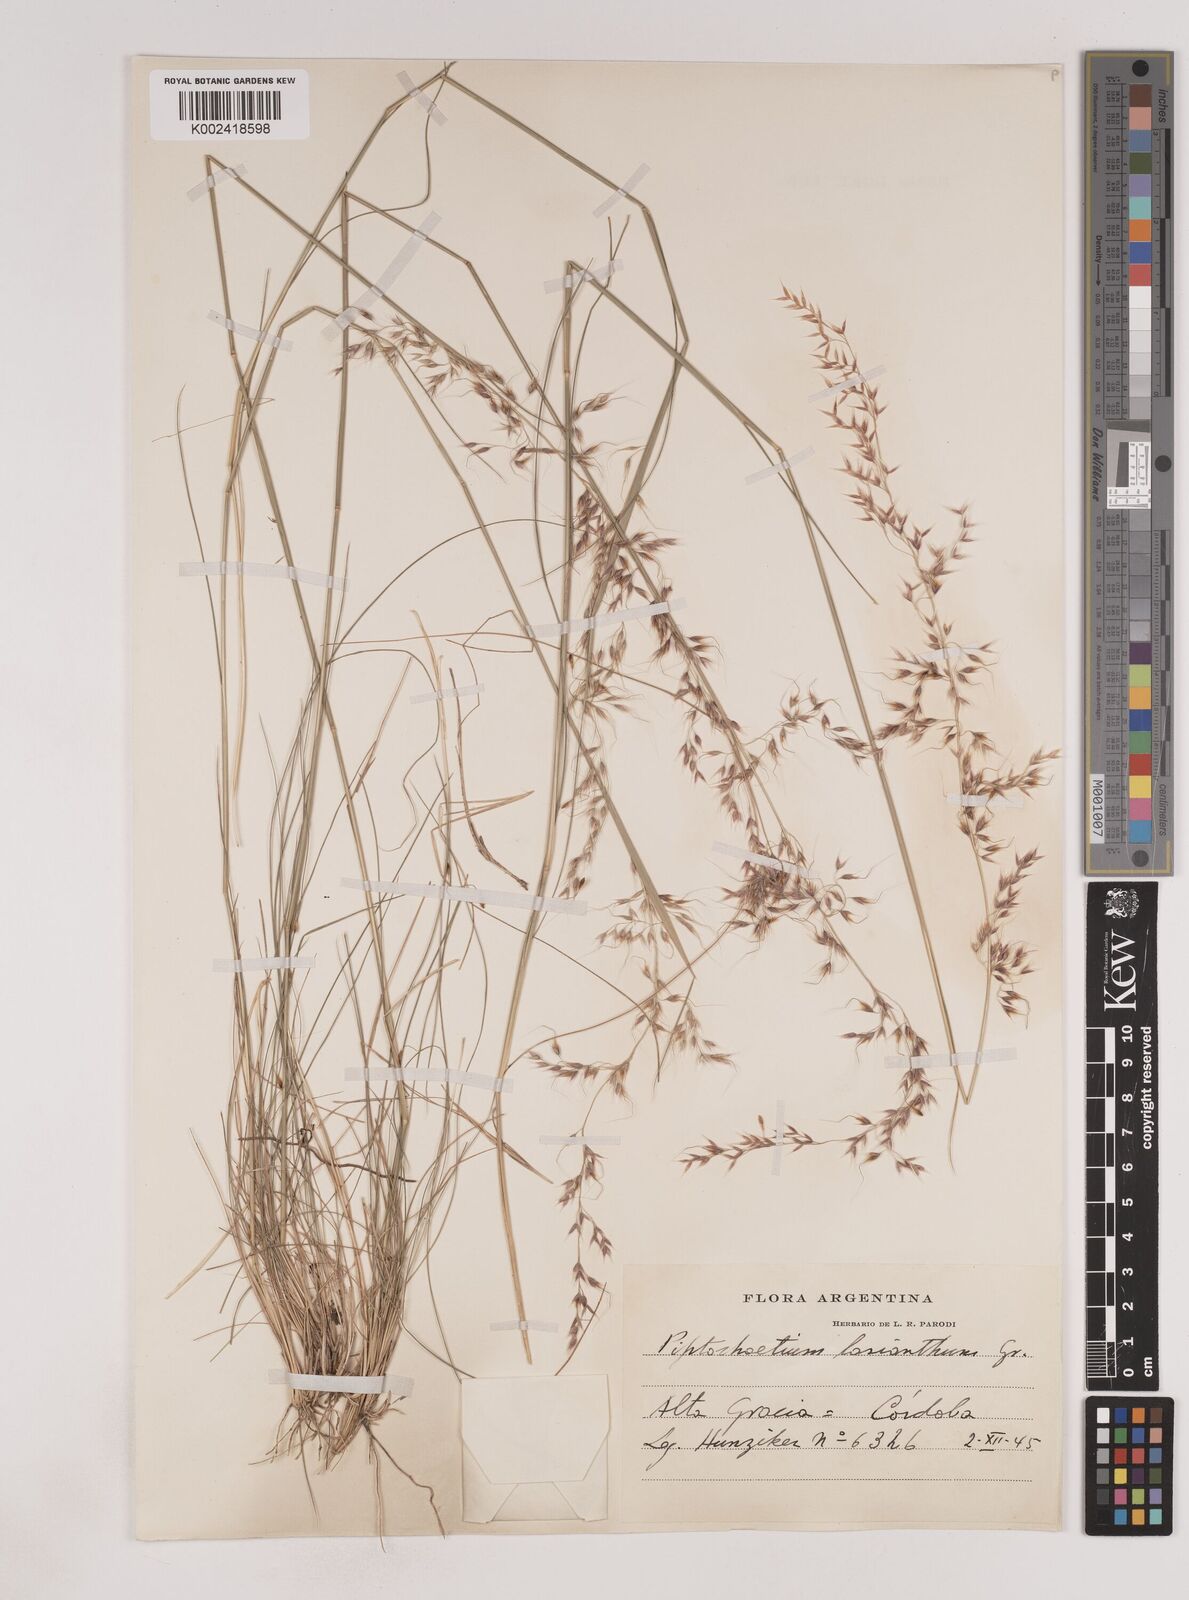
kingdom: Plantae
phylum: Tracheophyta
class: Liliopsida
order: Poales
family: Poaceae
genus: Piptochaetium
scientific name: Piptochaetium lasianthum
